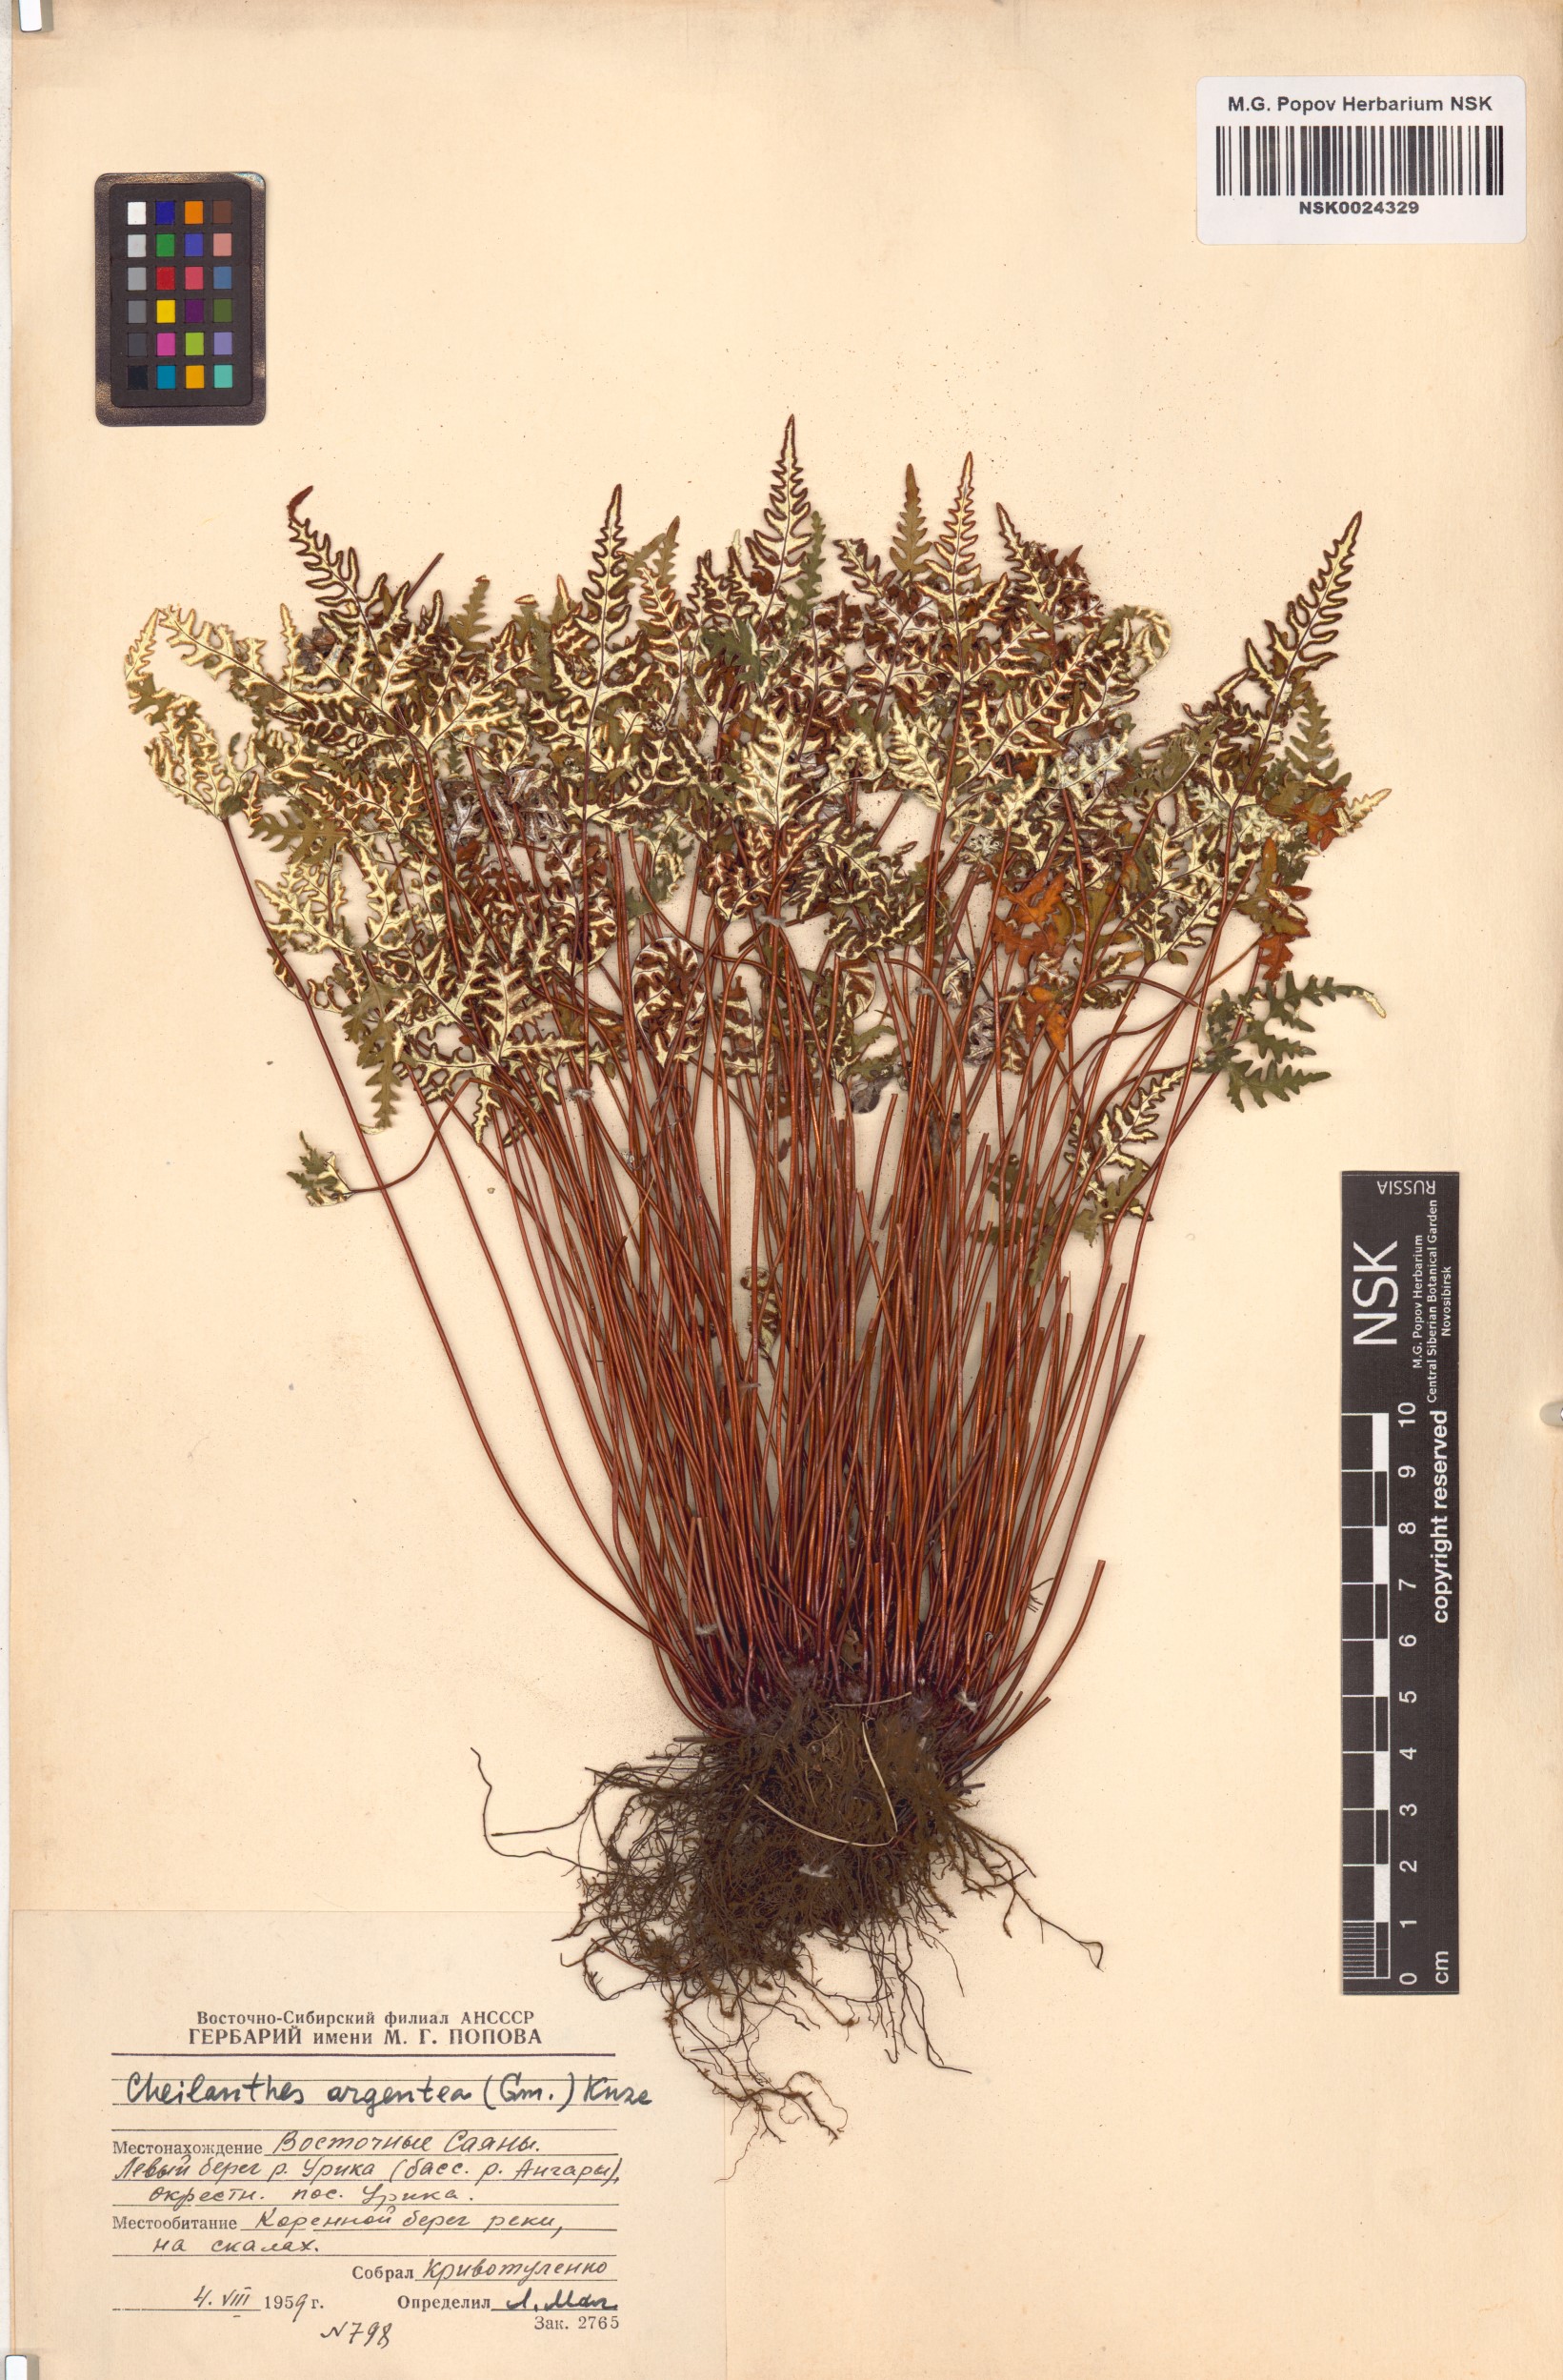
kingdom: Plantae
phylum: Tracheophyta
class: Polypodiopsida
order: Polypodiales
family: Pteridaceae
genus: Aleuritopteris
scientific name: Aleuritopteris argentea
